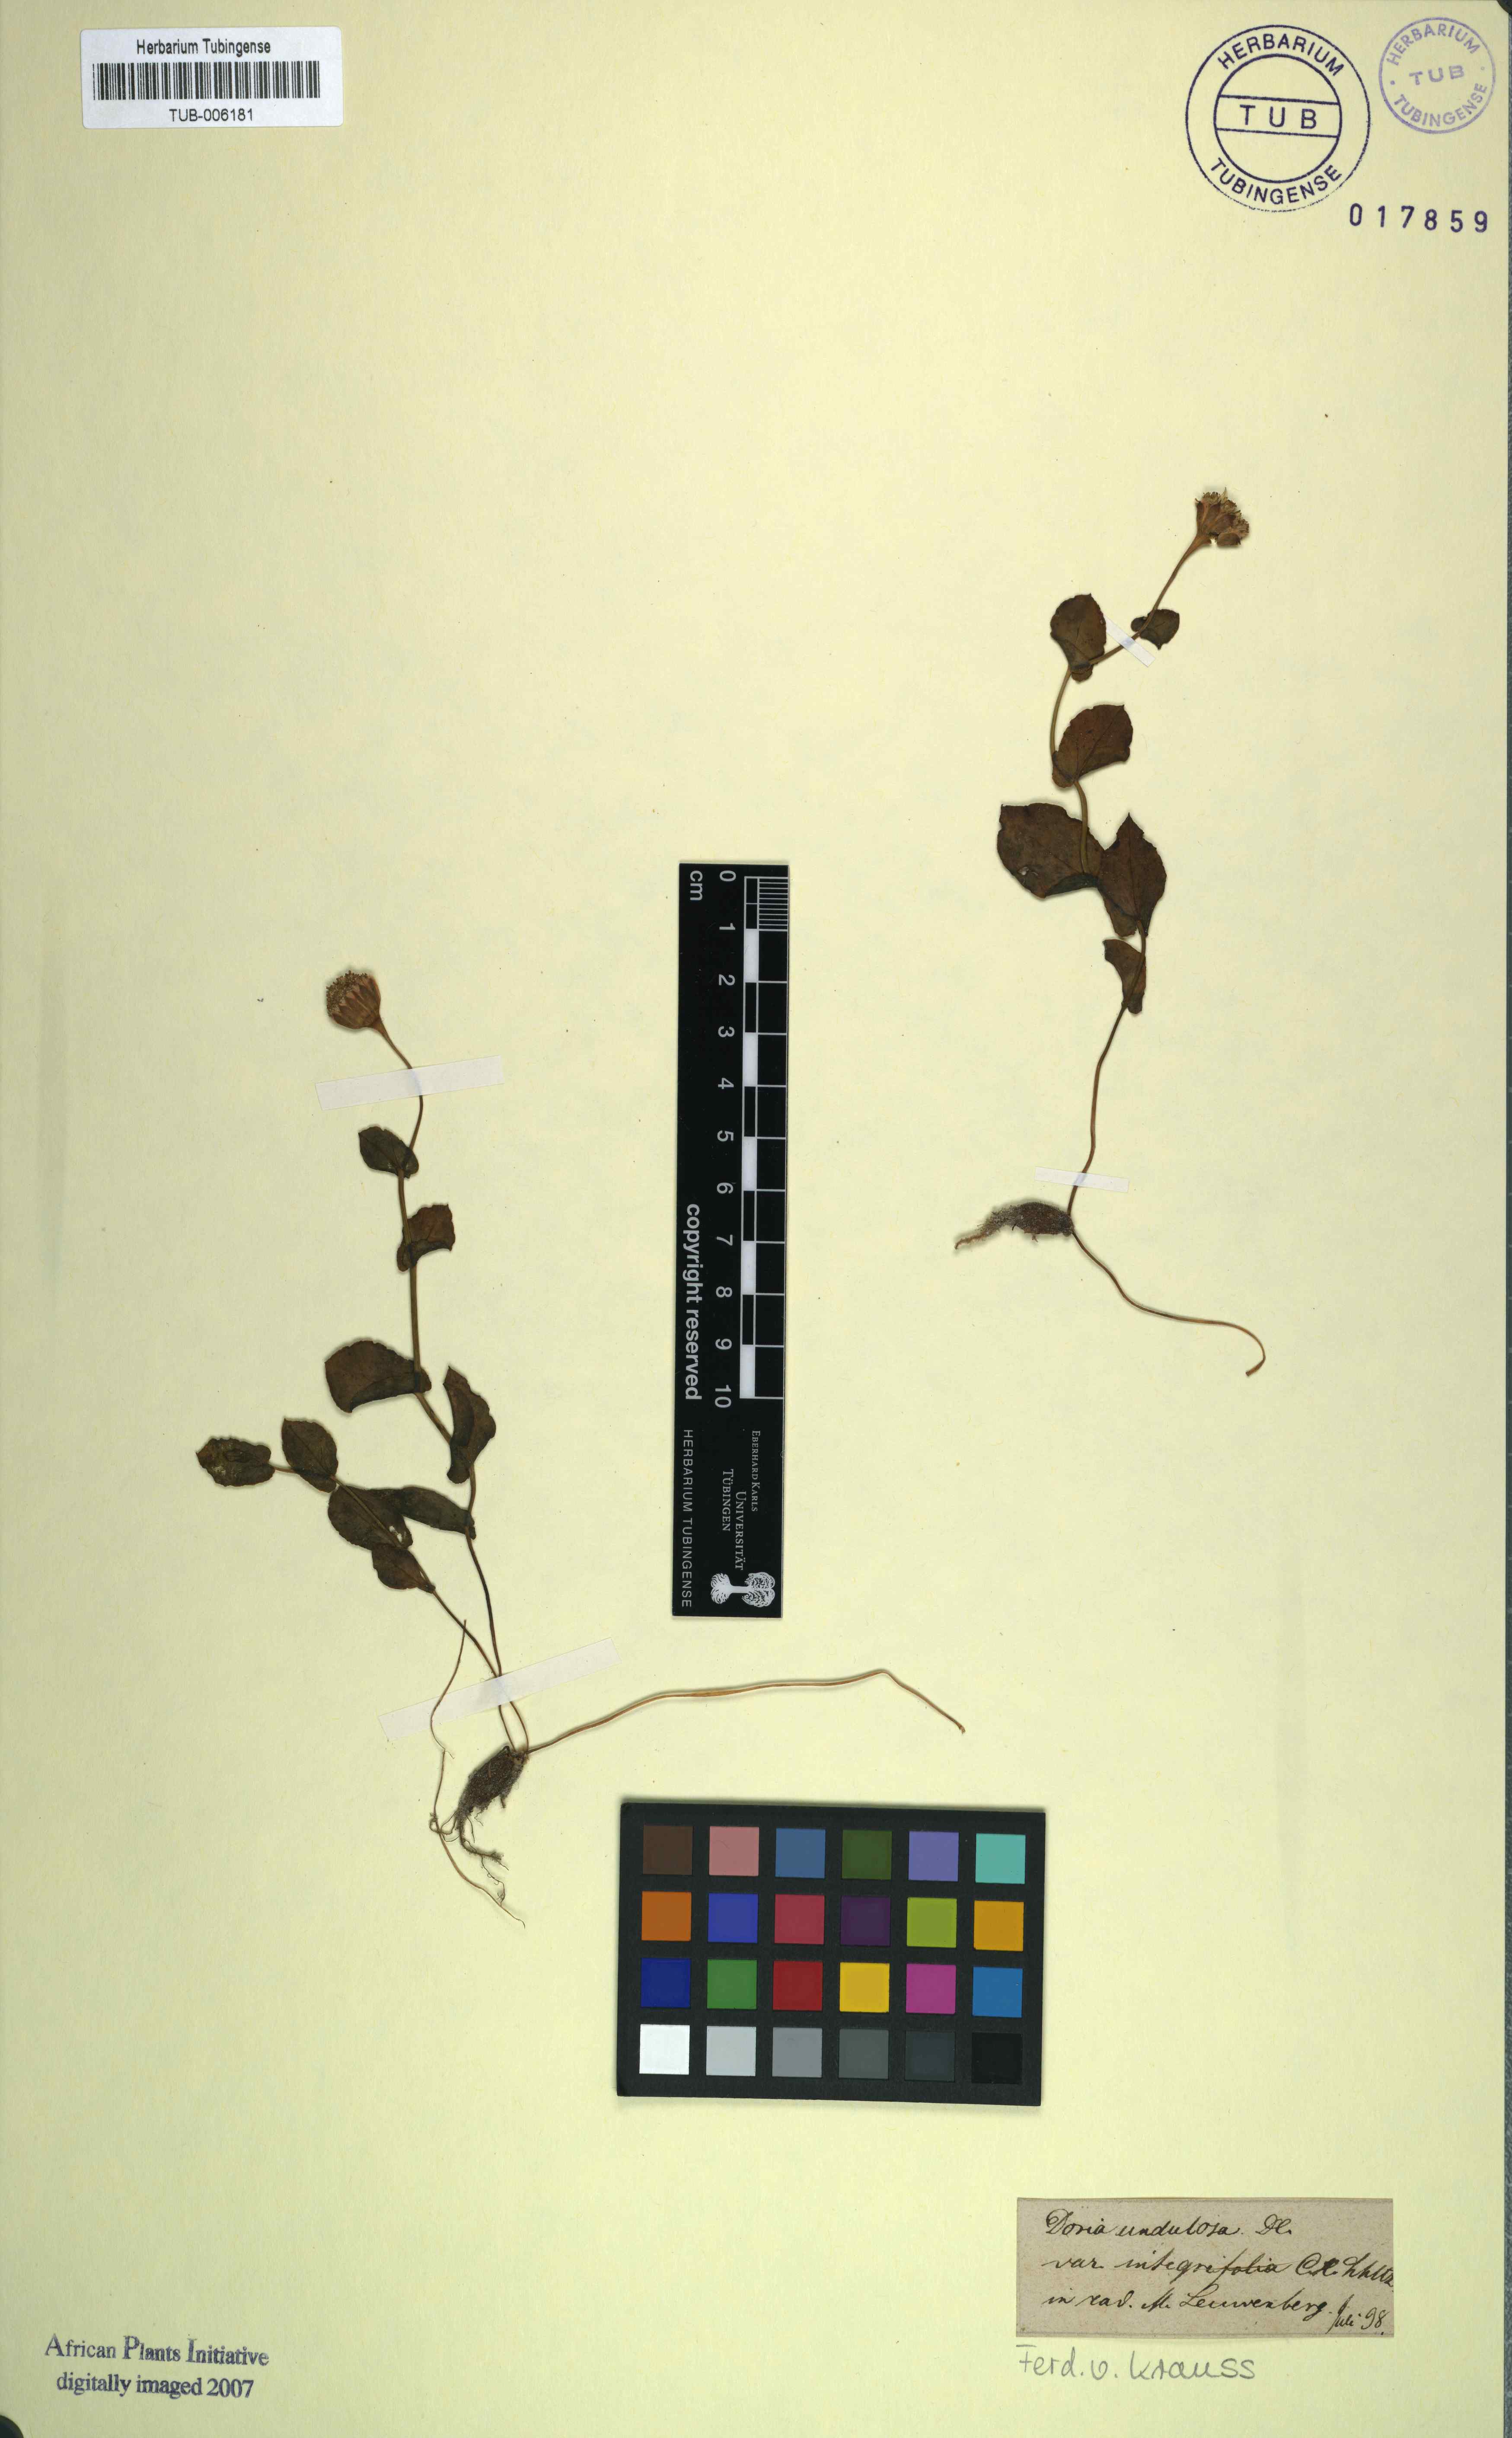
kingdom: Plantae
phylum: Tracheophyta
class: Magnoliopsida
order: Asterales
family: Asteraceae
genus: Senecio
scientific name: Senecio cymbalariifolius
